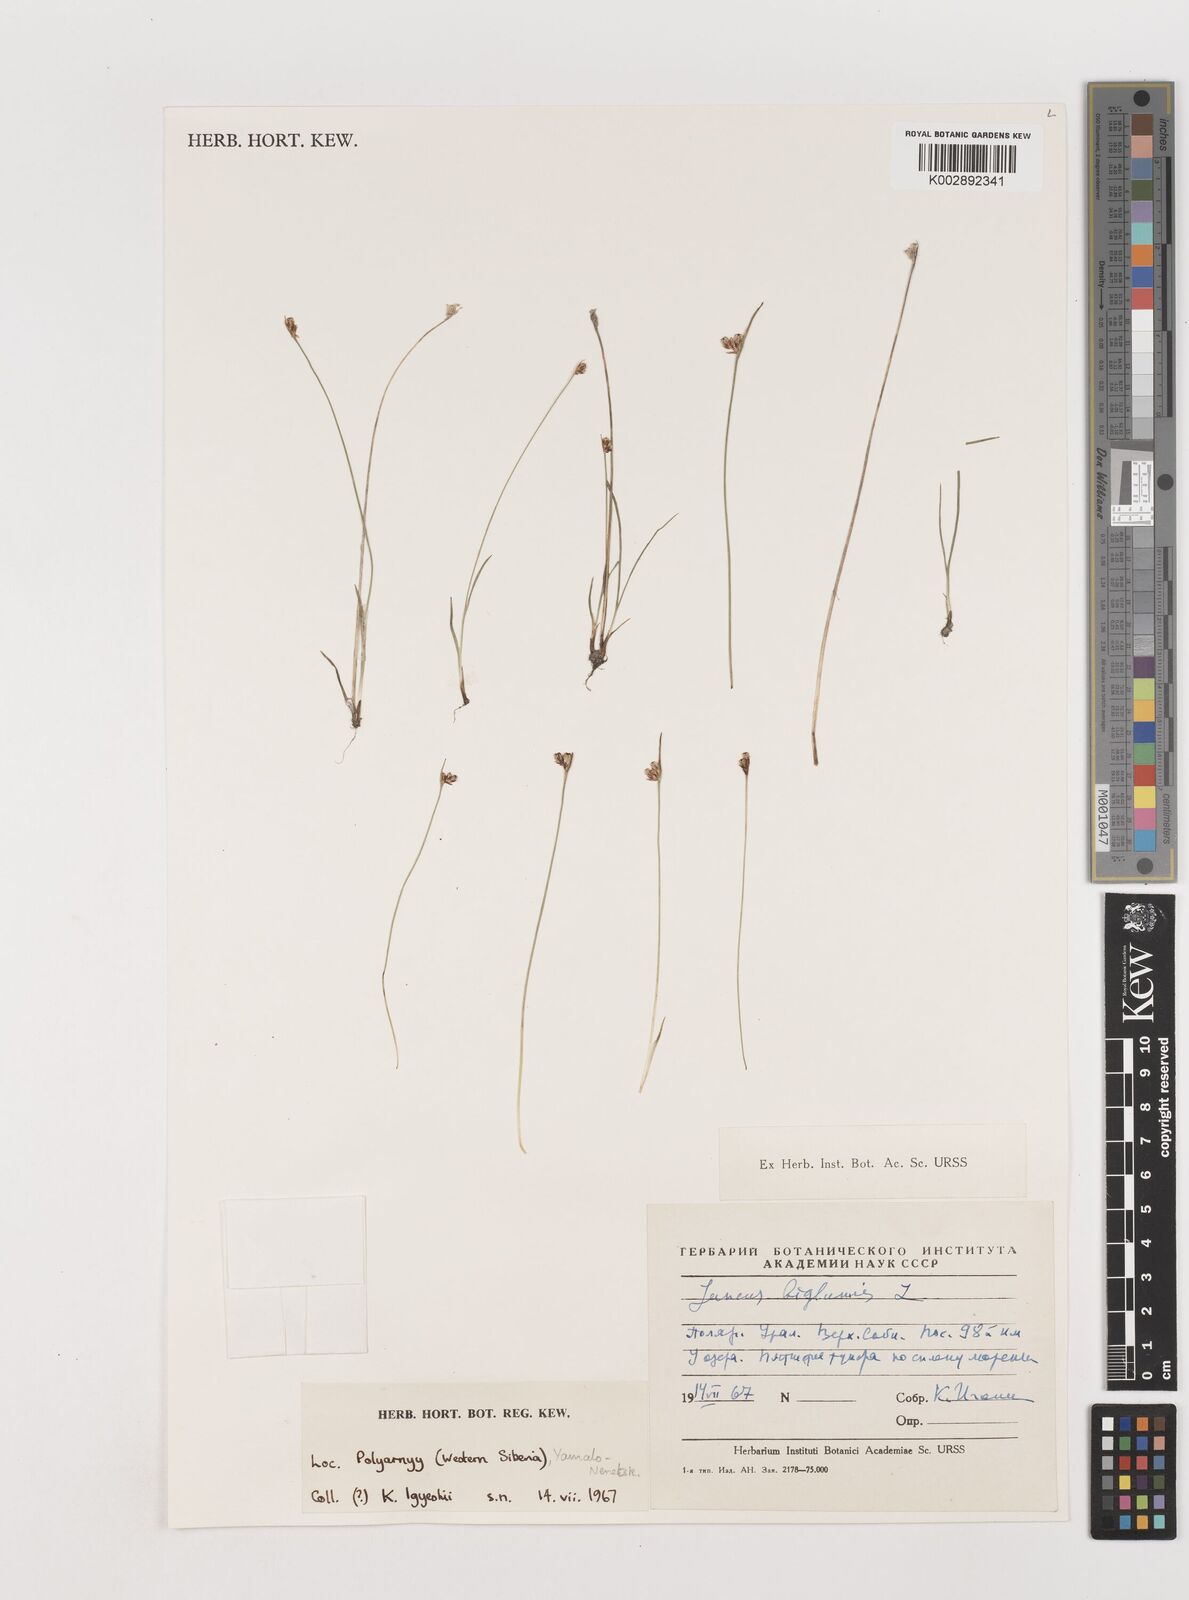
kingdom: Plantae
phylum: Tracheophyta
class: Liliopsida
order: Poales
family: Juncaceae
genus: Juncus
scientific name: Juncus biglumis
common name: Two-flowered rush
